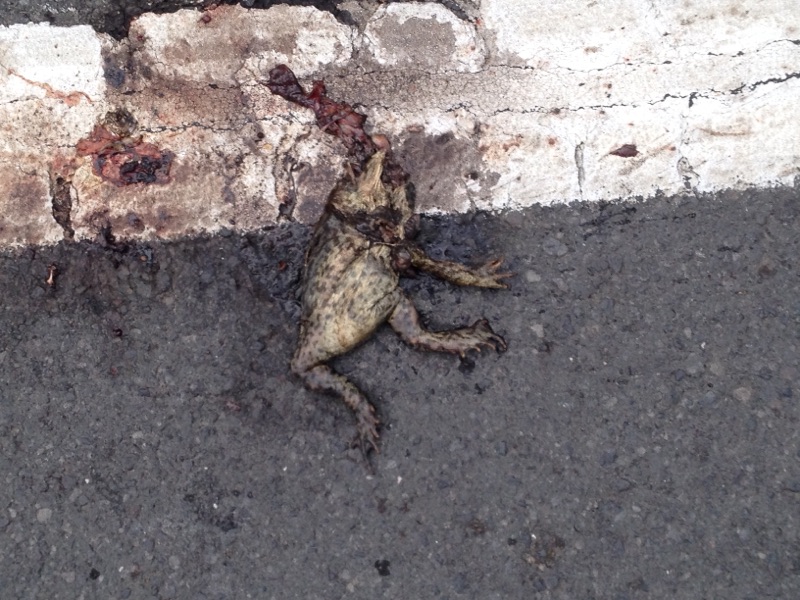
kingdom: Animalia
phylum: Chordata
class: Amphibia
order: Anura
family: Bufonidae
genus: Bufo
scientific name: Bufo bufo
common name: Common toad
